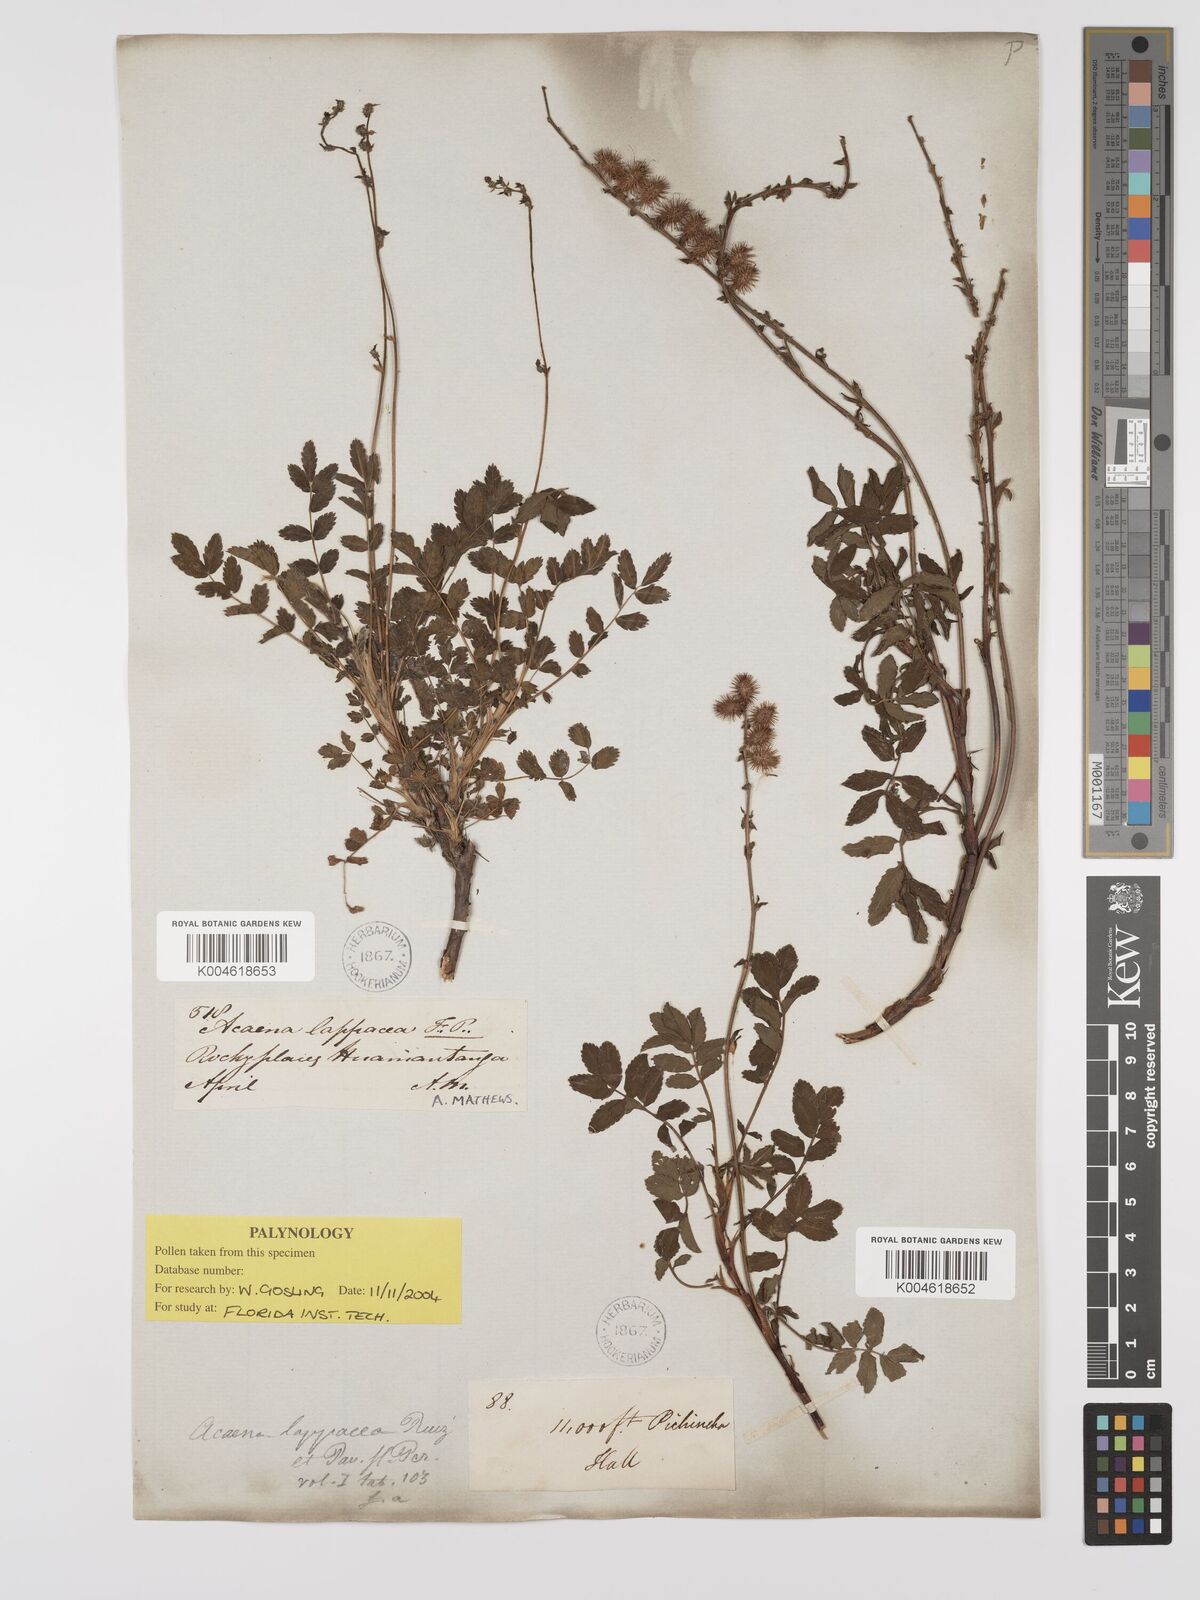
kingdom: Plantae
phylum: Tracheophyta
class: Magnoliopsida
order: Rosales
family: Rosaceae
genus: Acaena
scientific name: Acaena elongata
